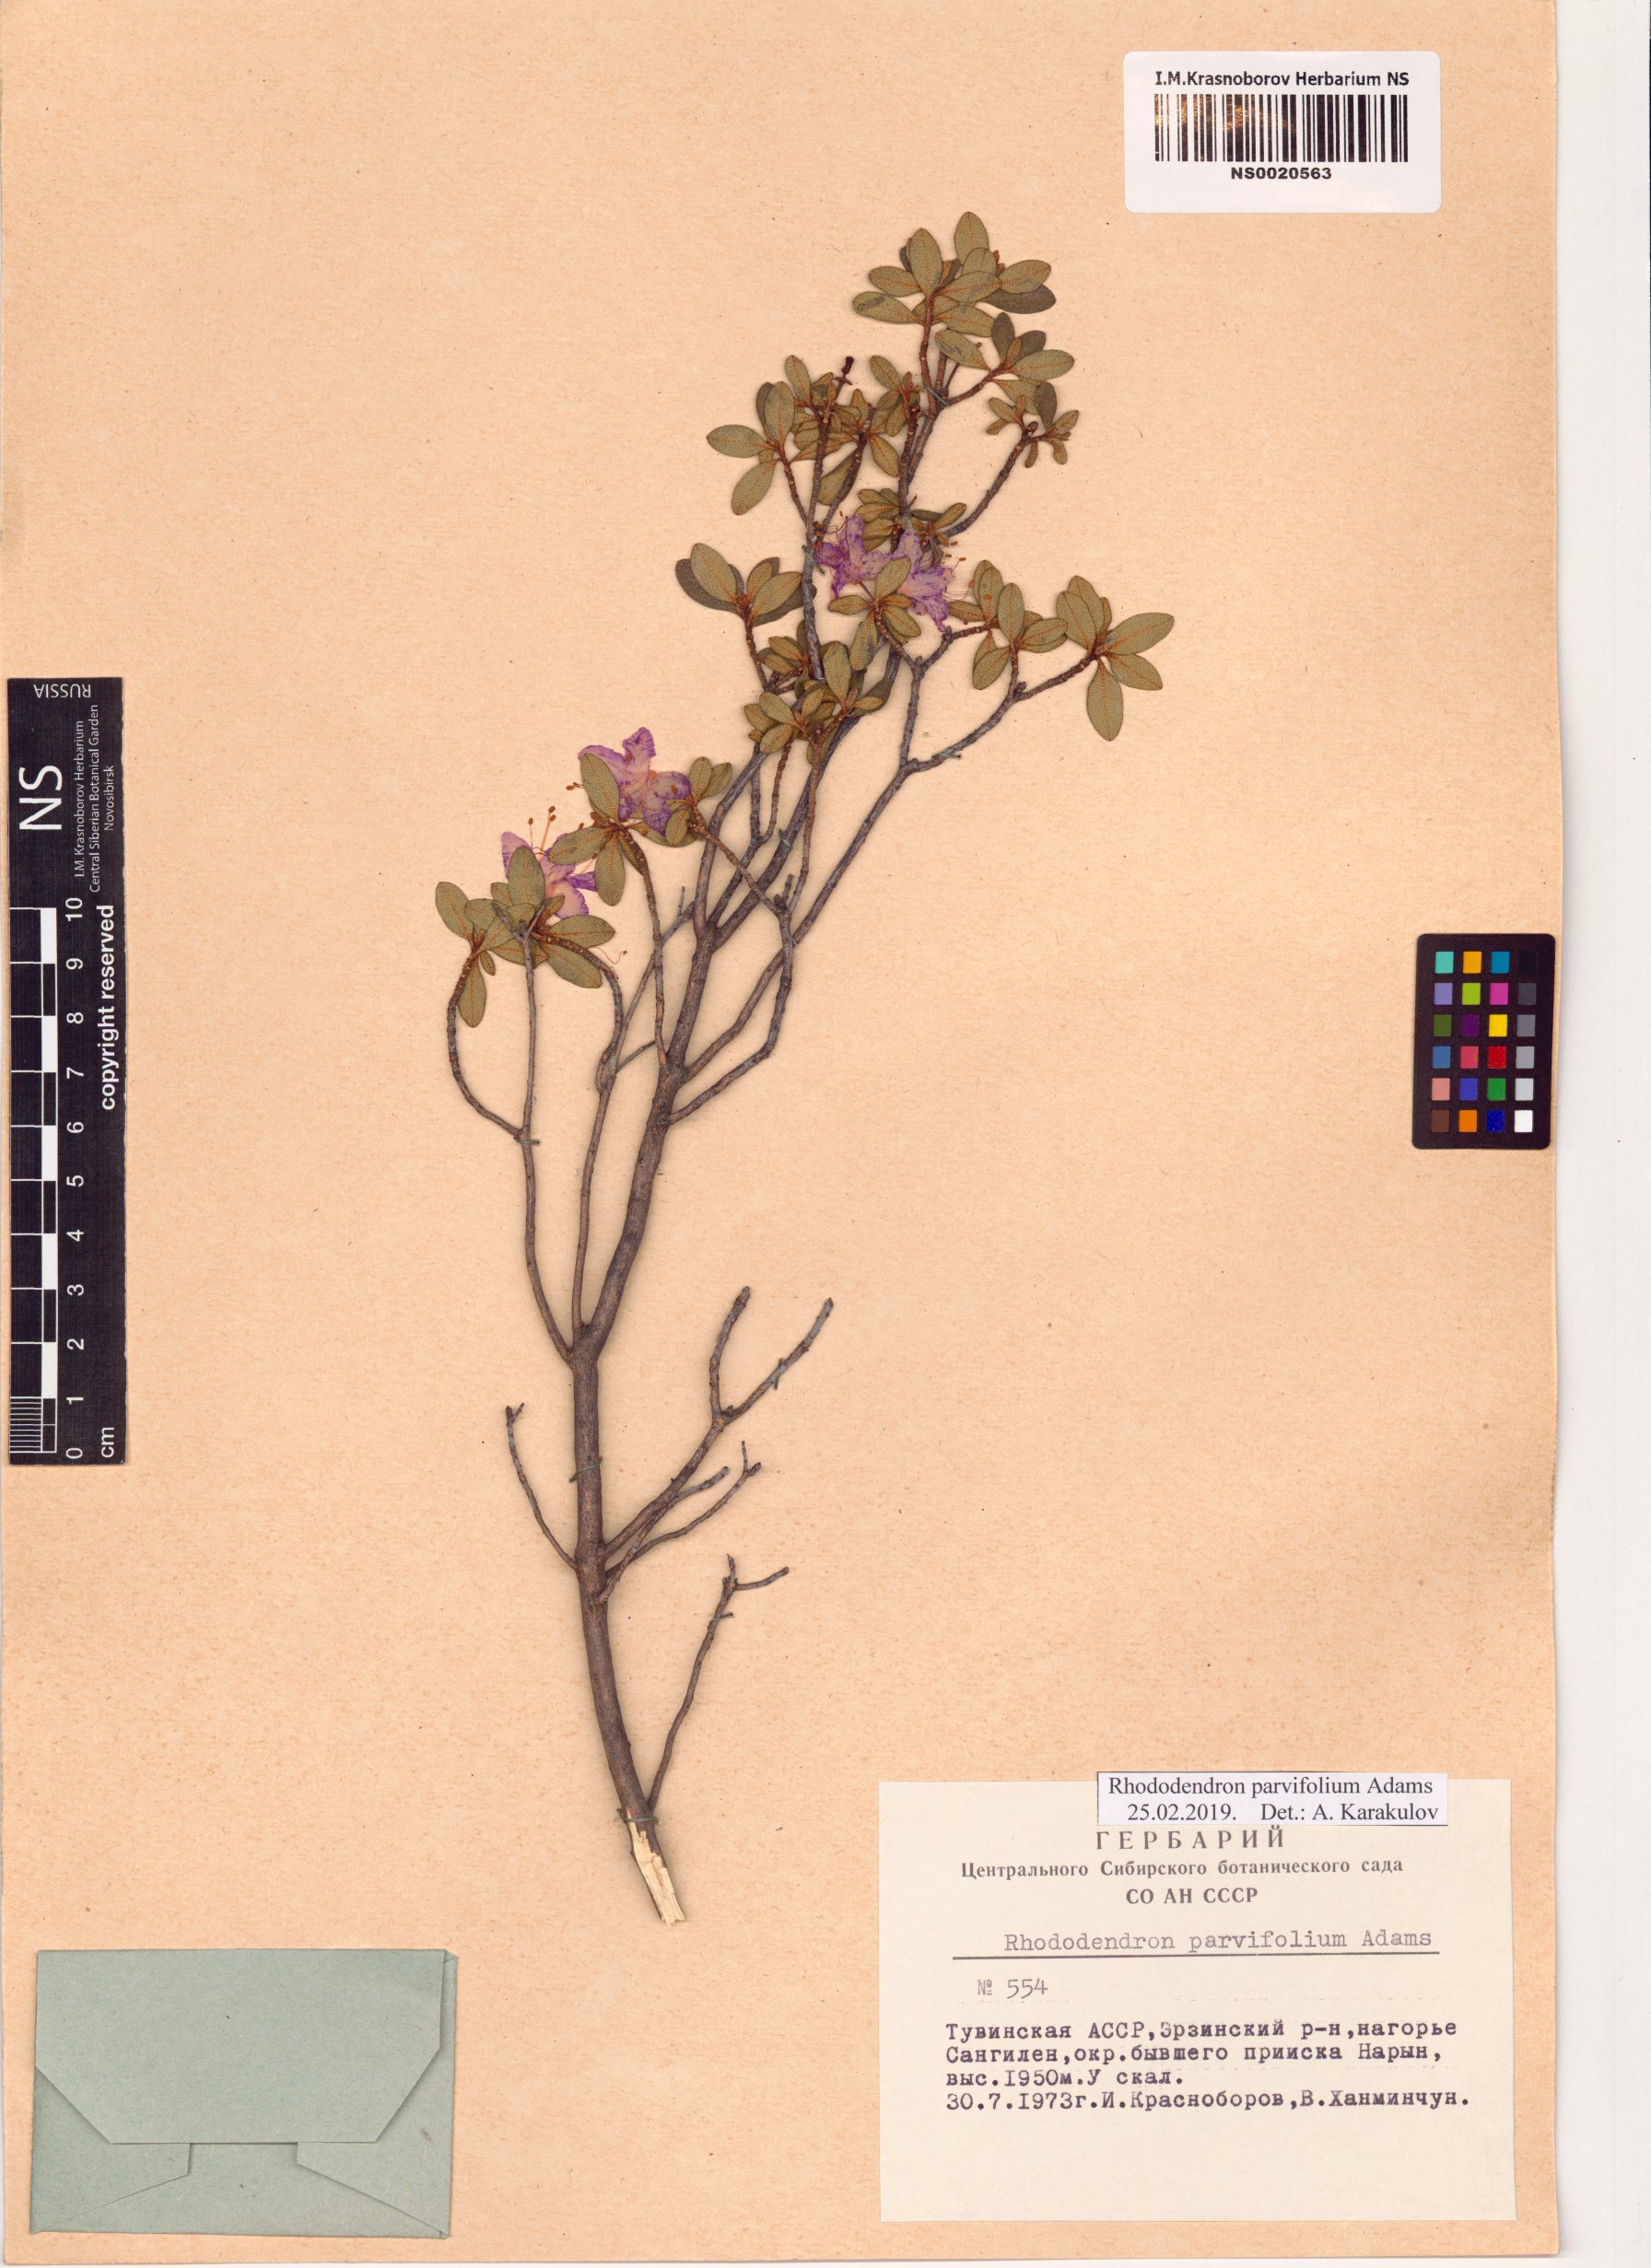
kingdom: Plantae
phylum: Tracheophyta
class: Magnoliopsida
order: Ericales
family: Ericaceae
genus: Rhododendron
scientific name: Rhododendron parvifolium
